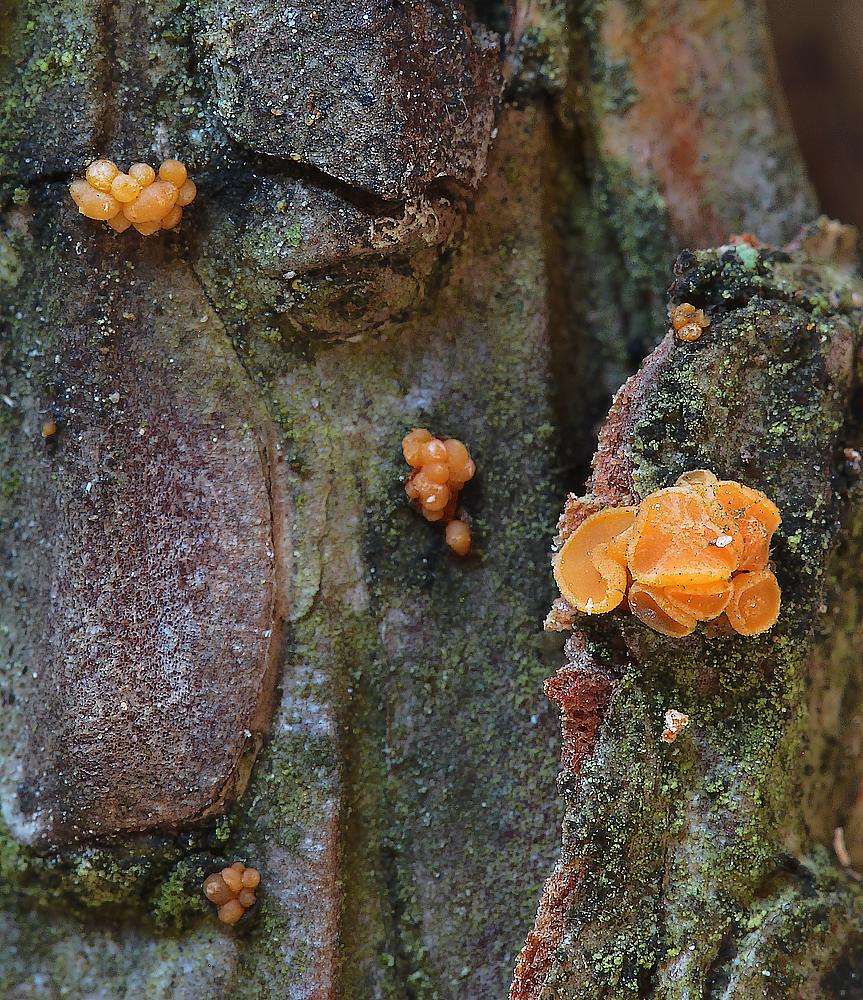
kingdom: Fungi
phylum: Ascomycota
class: Sareomycetes
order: Sareales
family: Sareaceae
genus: Sarea
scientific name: Sarea resinae
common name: orangegul harpiksskive
